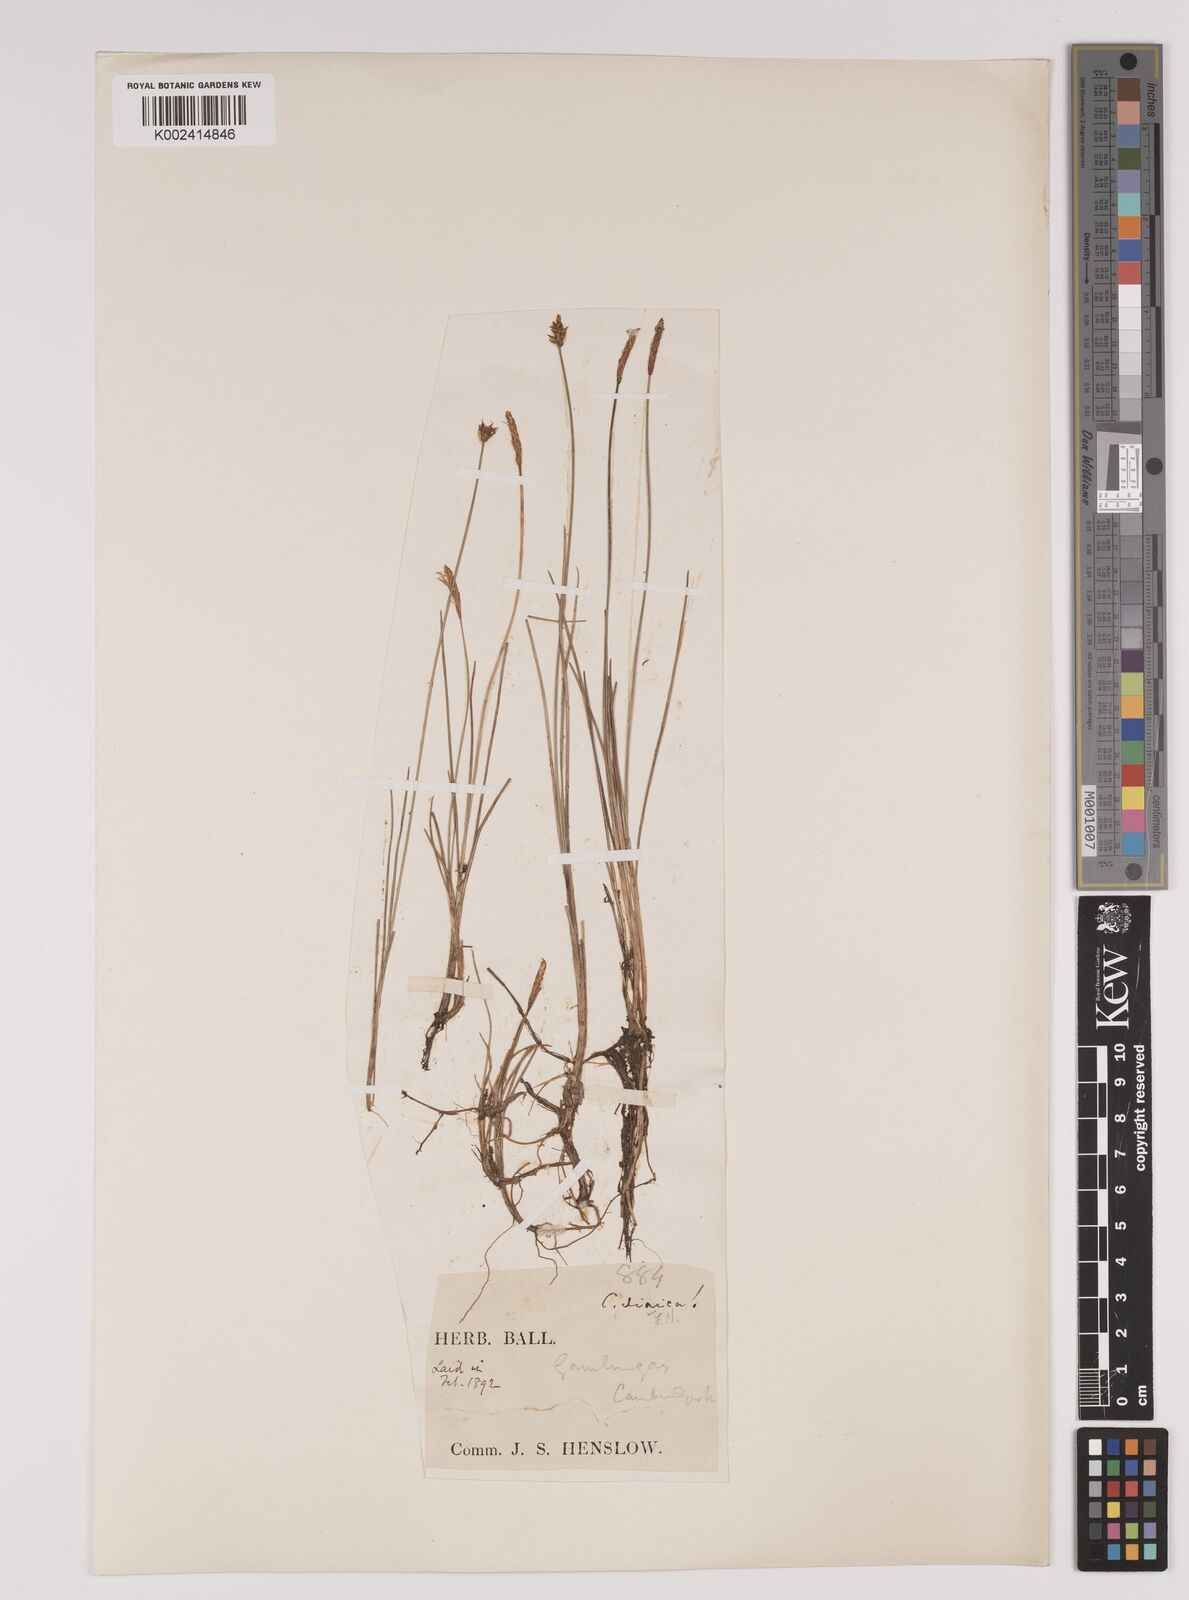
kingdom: Plantae
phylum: Tracheophyta
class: Liliopsida
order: Poales
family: Cyperaceae
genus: Carex
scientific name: Carex dioica
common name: Dioecious sedge
